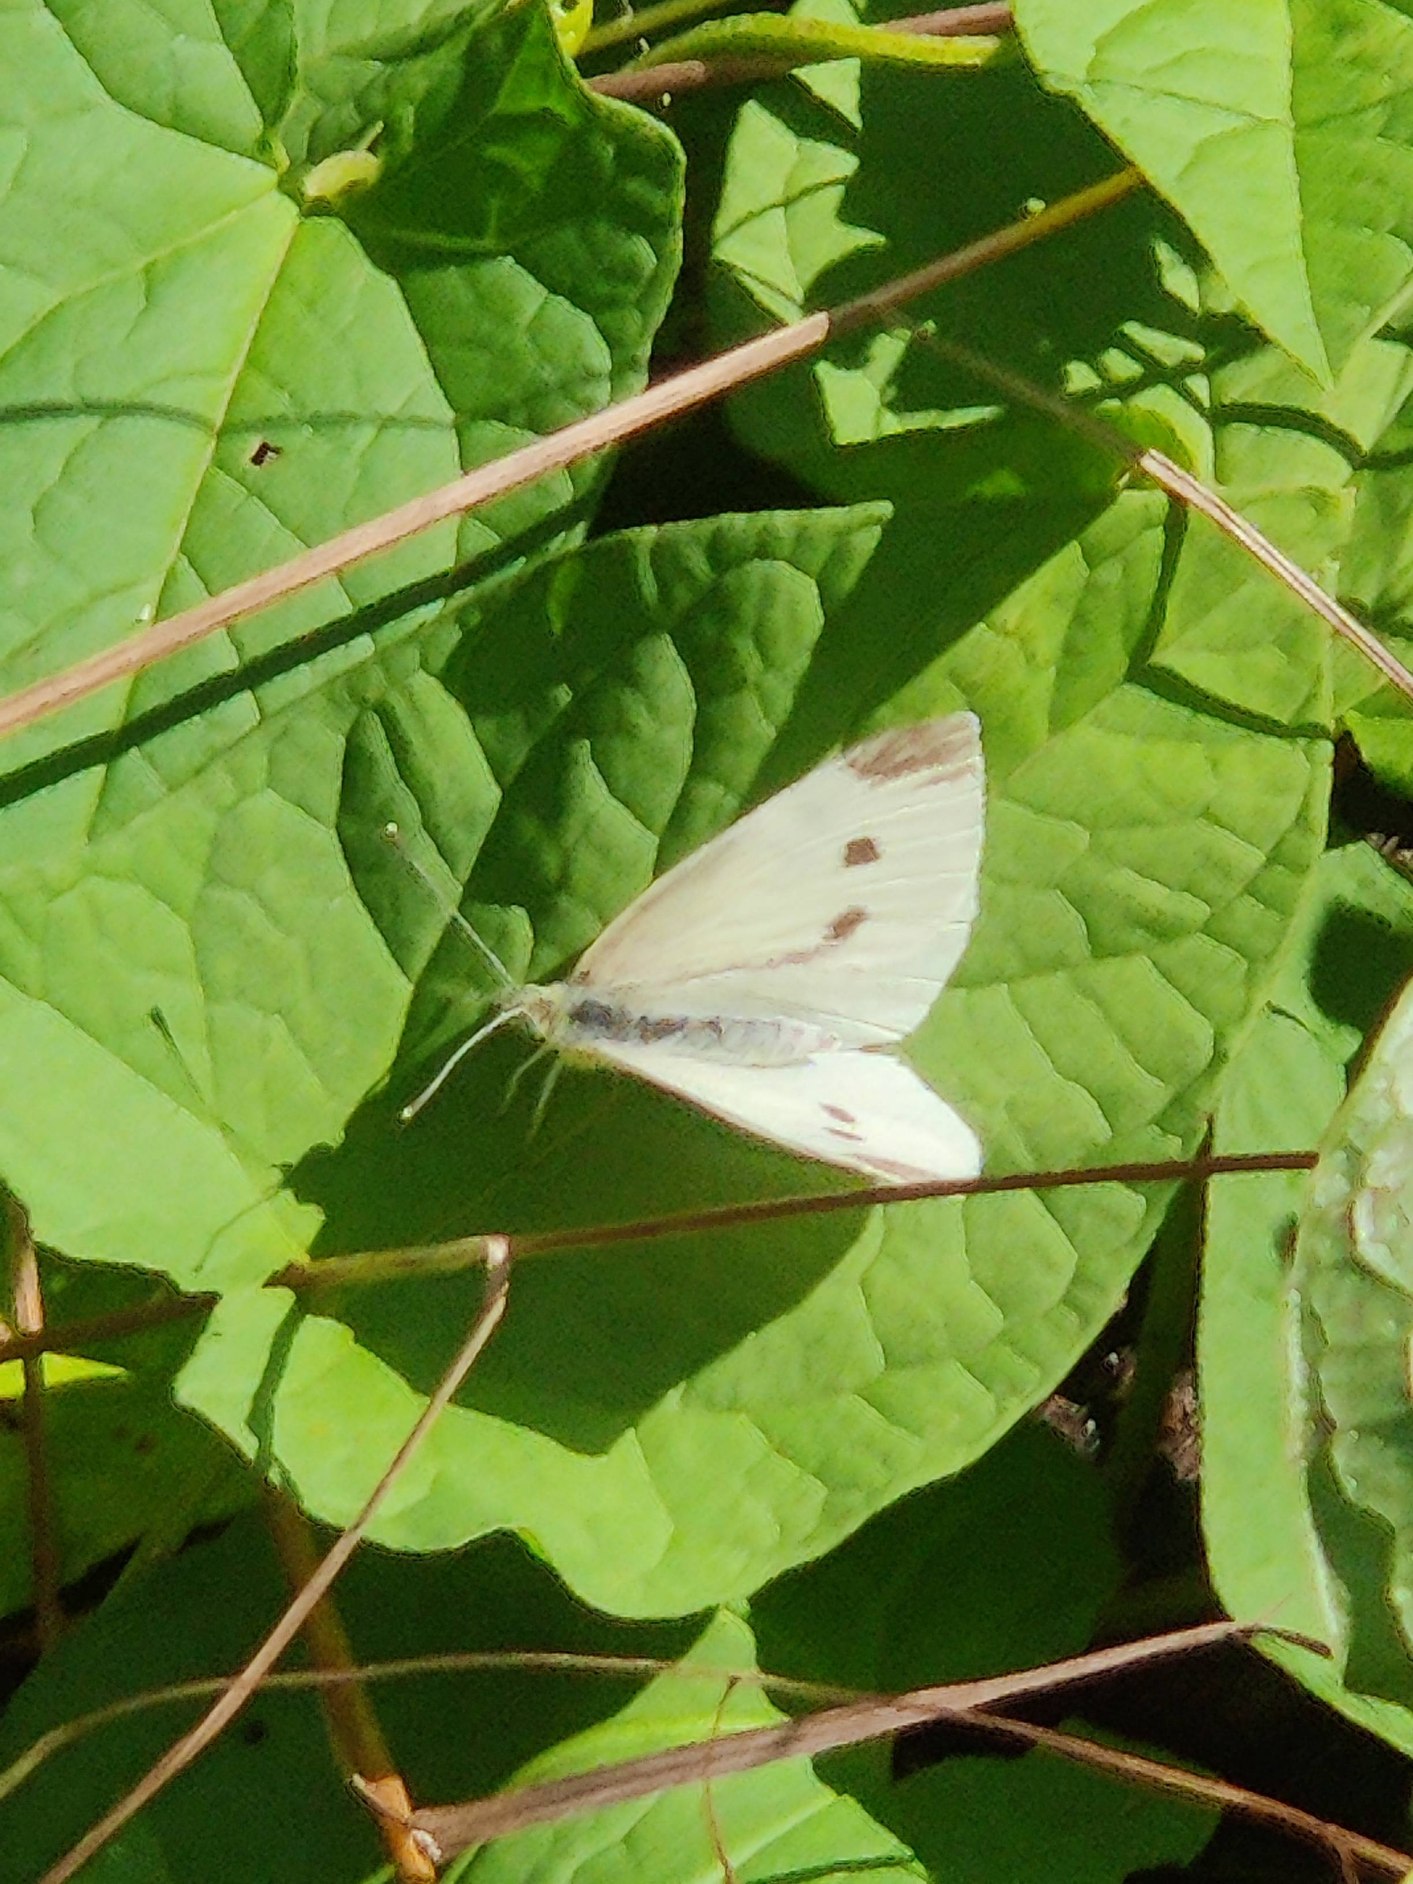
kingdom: Animalia
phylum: Arthropoda
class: Insecta
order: Lepidoptera
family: Pieridae
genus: Pieris
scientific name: Pieris rapae
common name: Lille kålsommerfugl
